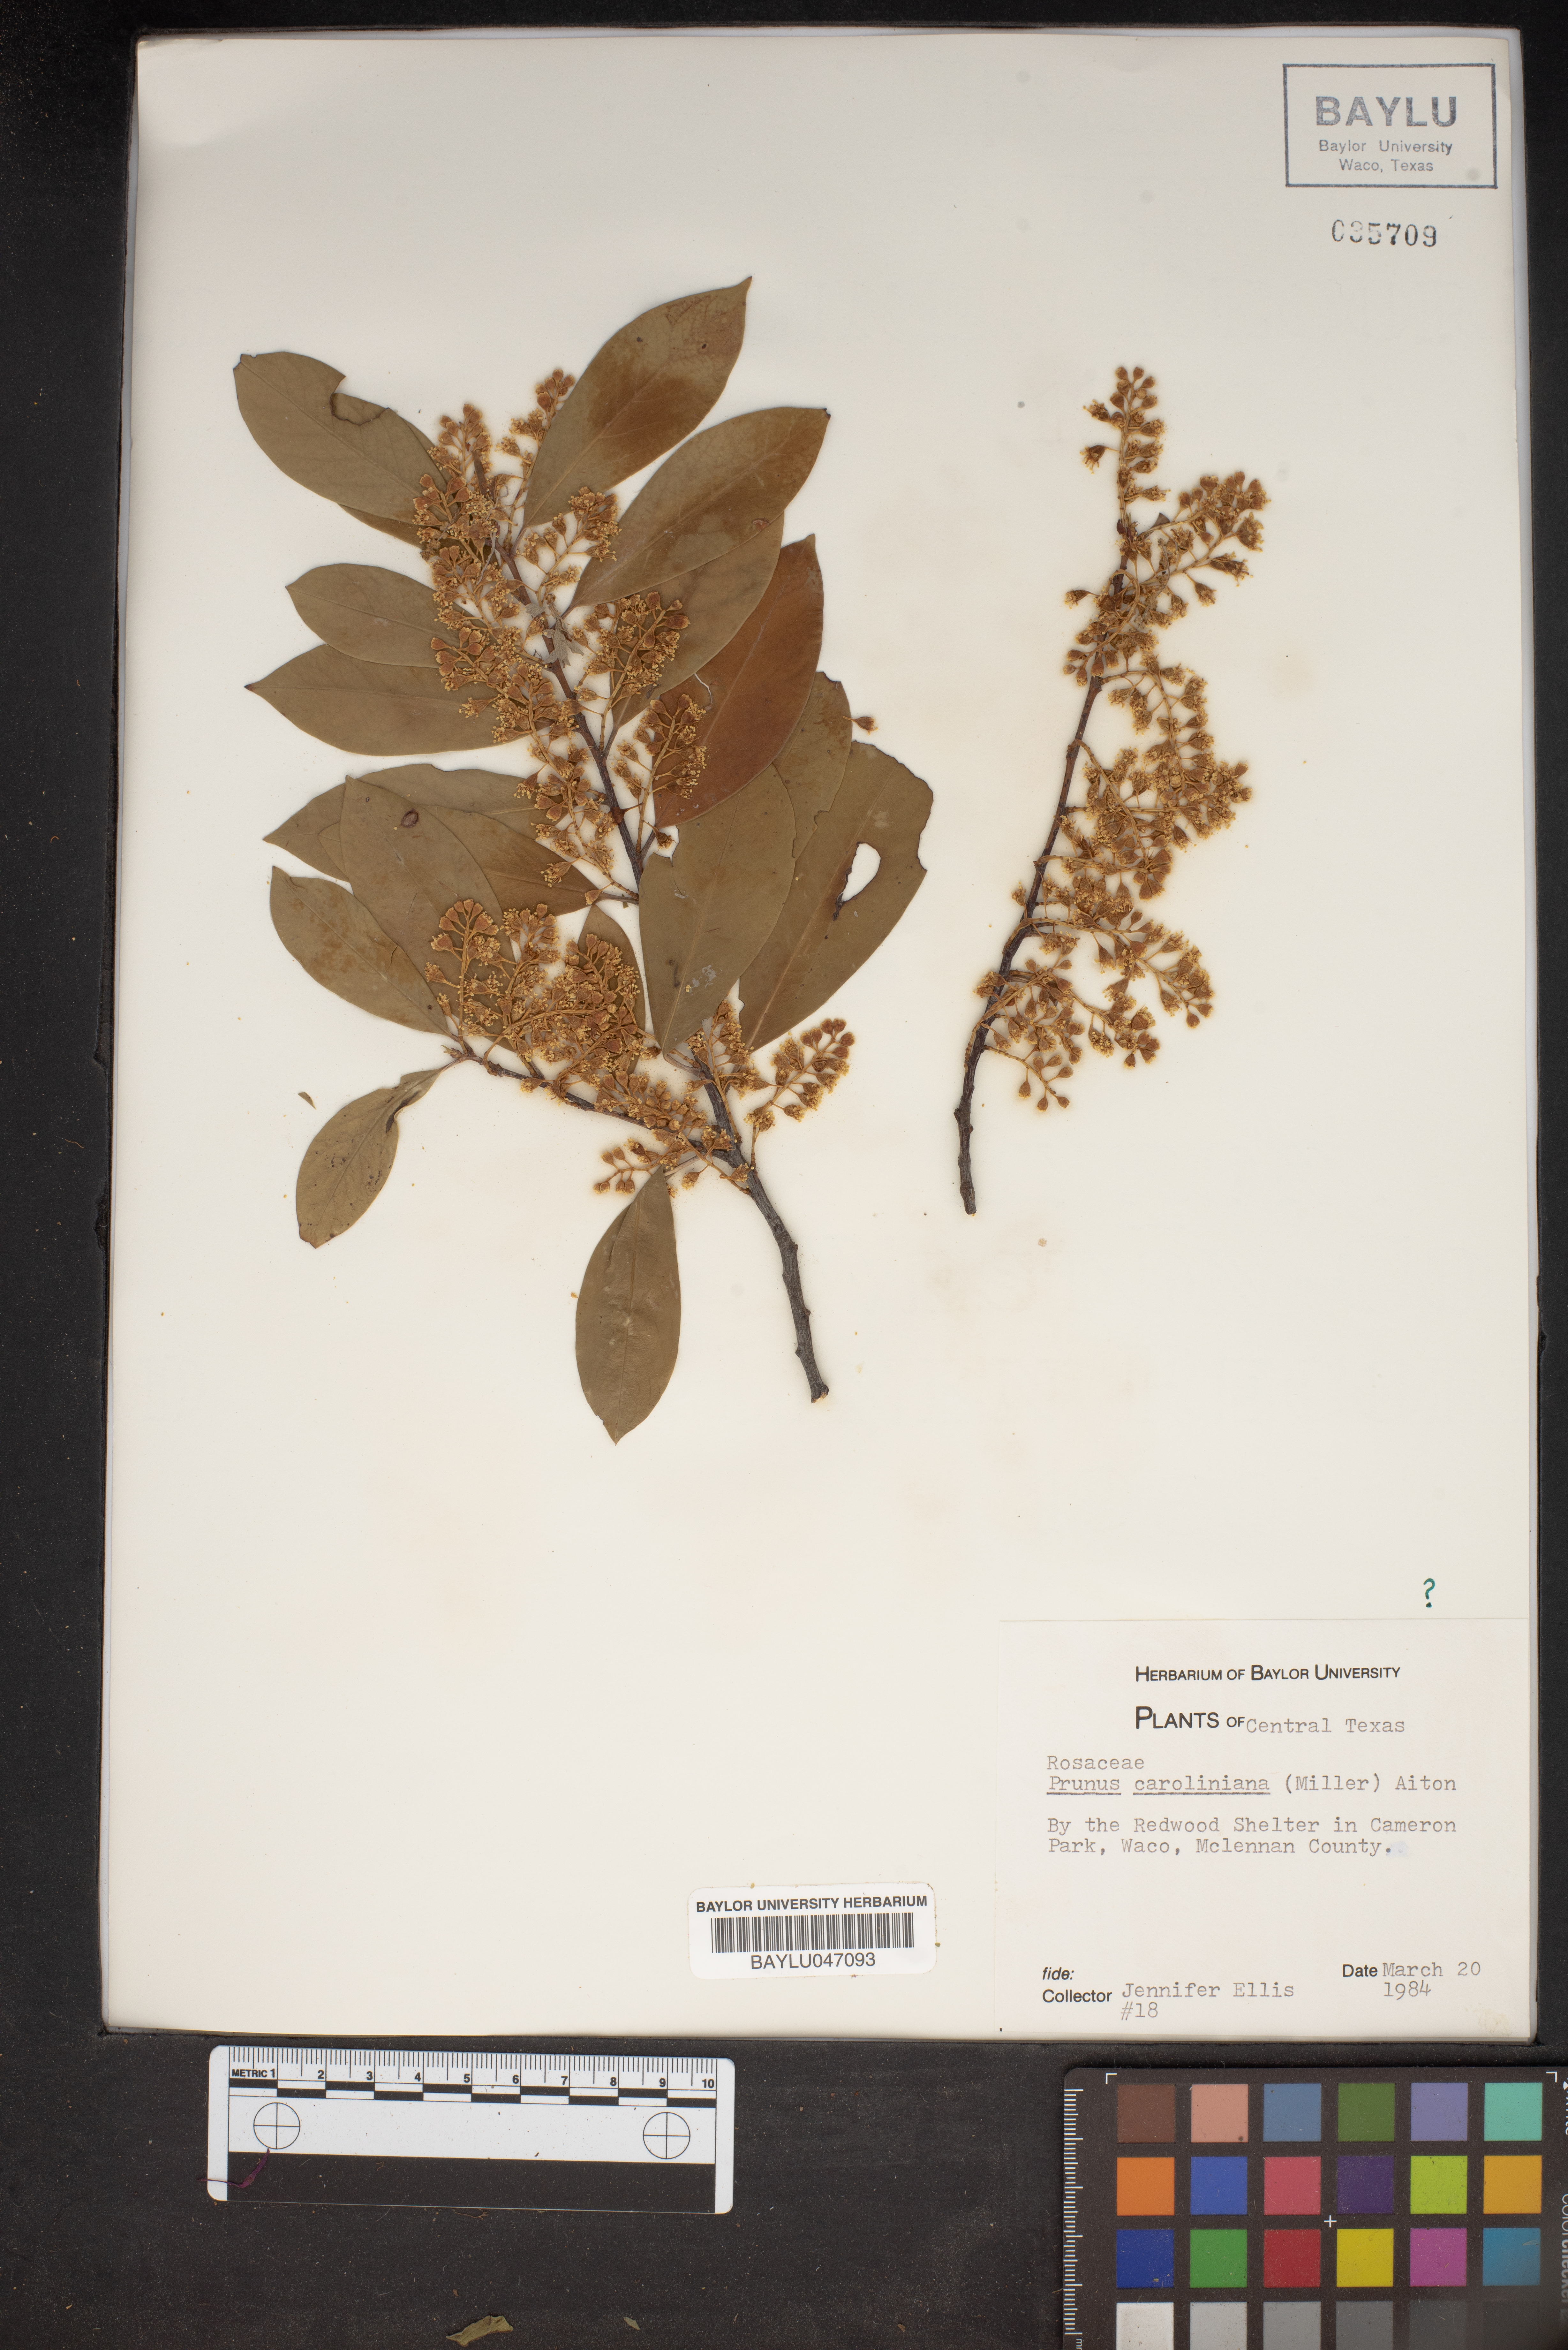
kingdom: Plantae
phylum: Tracheophyta
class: Magnoliopsida
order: Rosales
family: Rosaceae
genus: Prunus
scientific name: Prunus caroliniana
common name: Carolina laurel cherry
